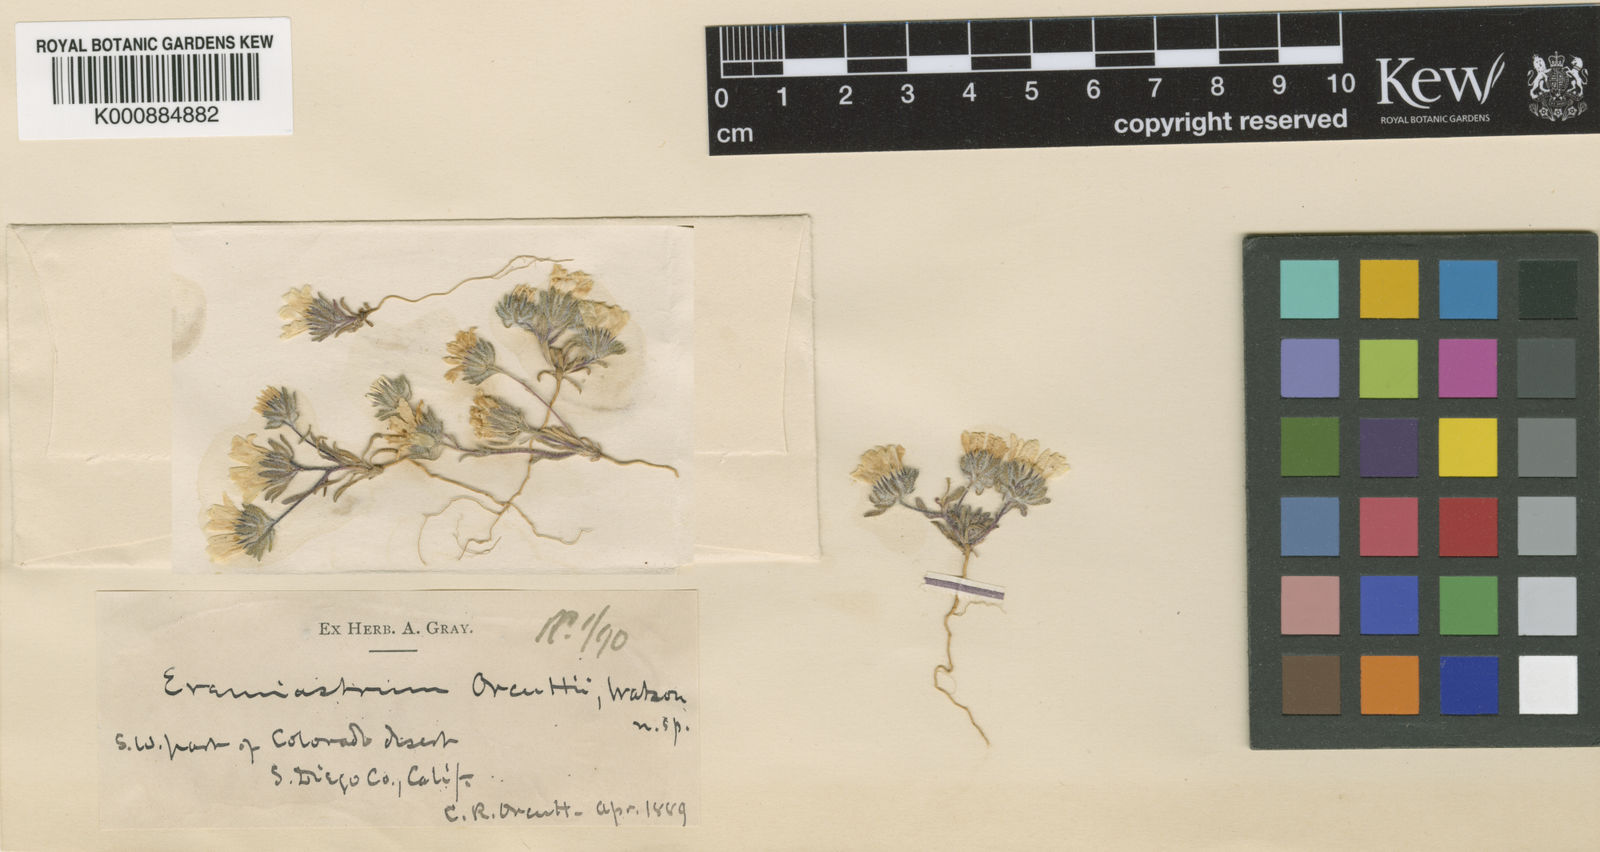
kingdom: Plantae
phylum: Tracheophyta
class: Magnoliopsida
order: Asterales
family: Asteraceae
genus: Monoptilon
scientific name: Monoptilon
